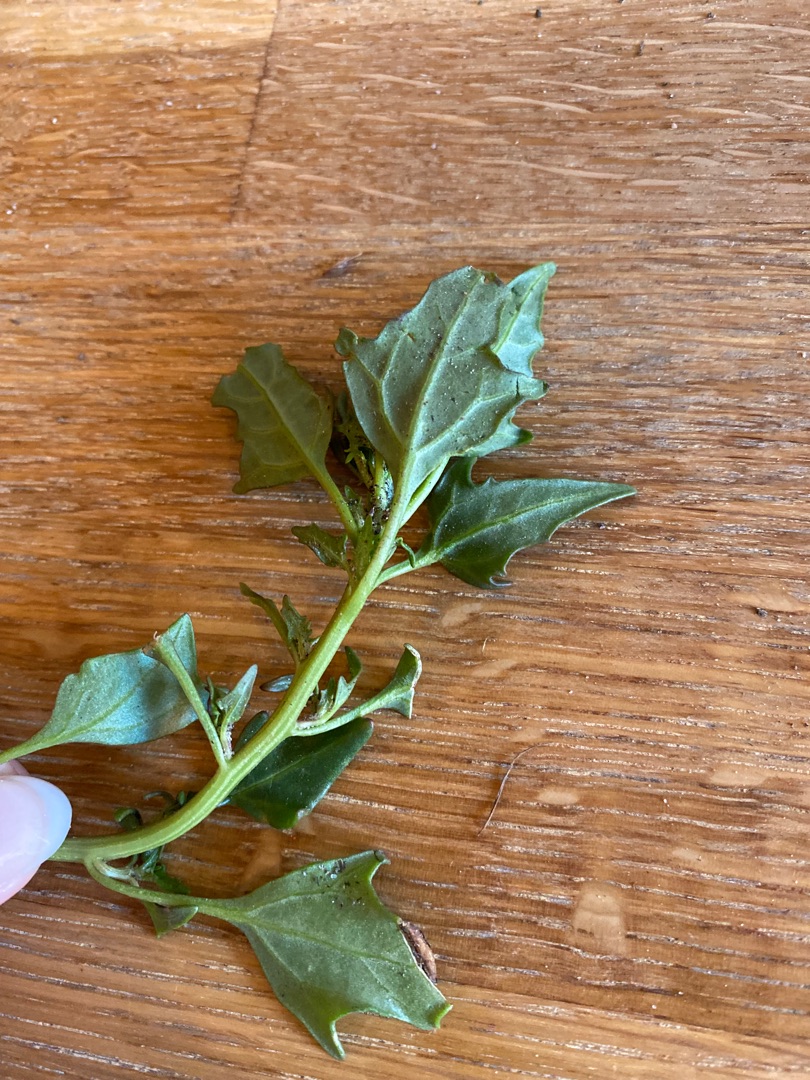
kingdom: Plantae
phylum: Tracheophyta
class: Magnoliopsida
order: Caryophyllales
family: Amaranthaceae
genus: Oxybasis
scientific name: Oxybasis rubra
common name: Rød gåsefod
